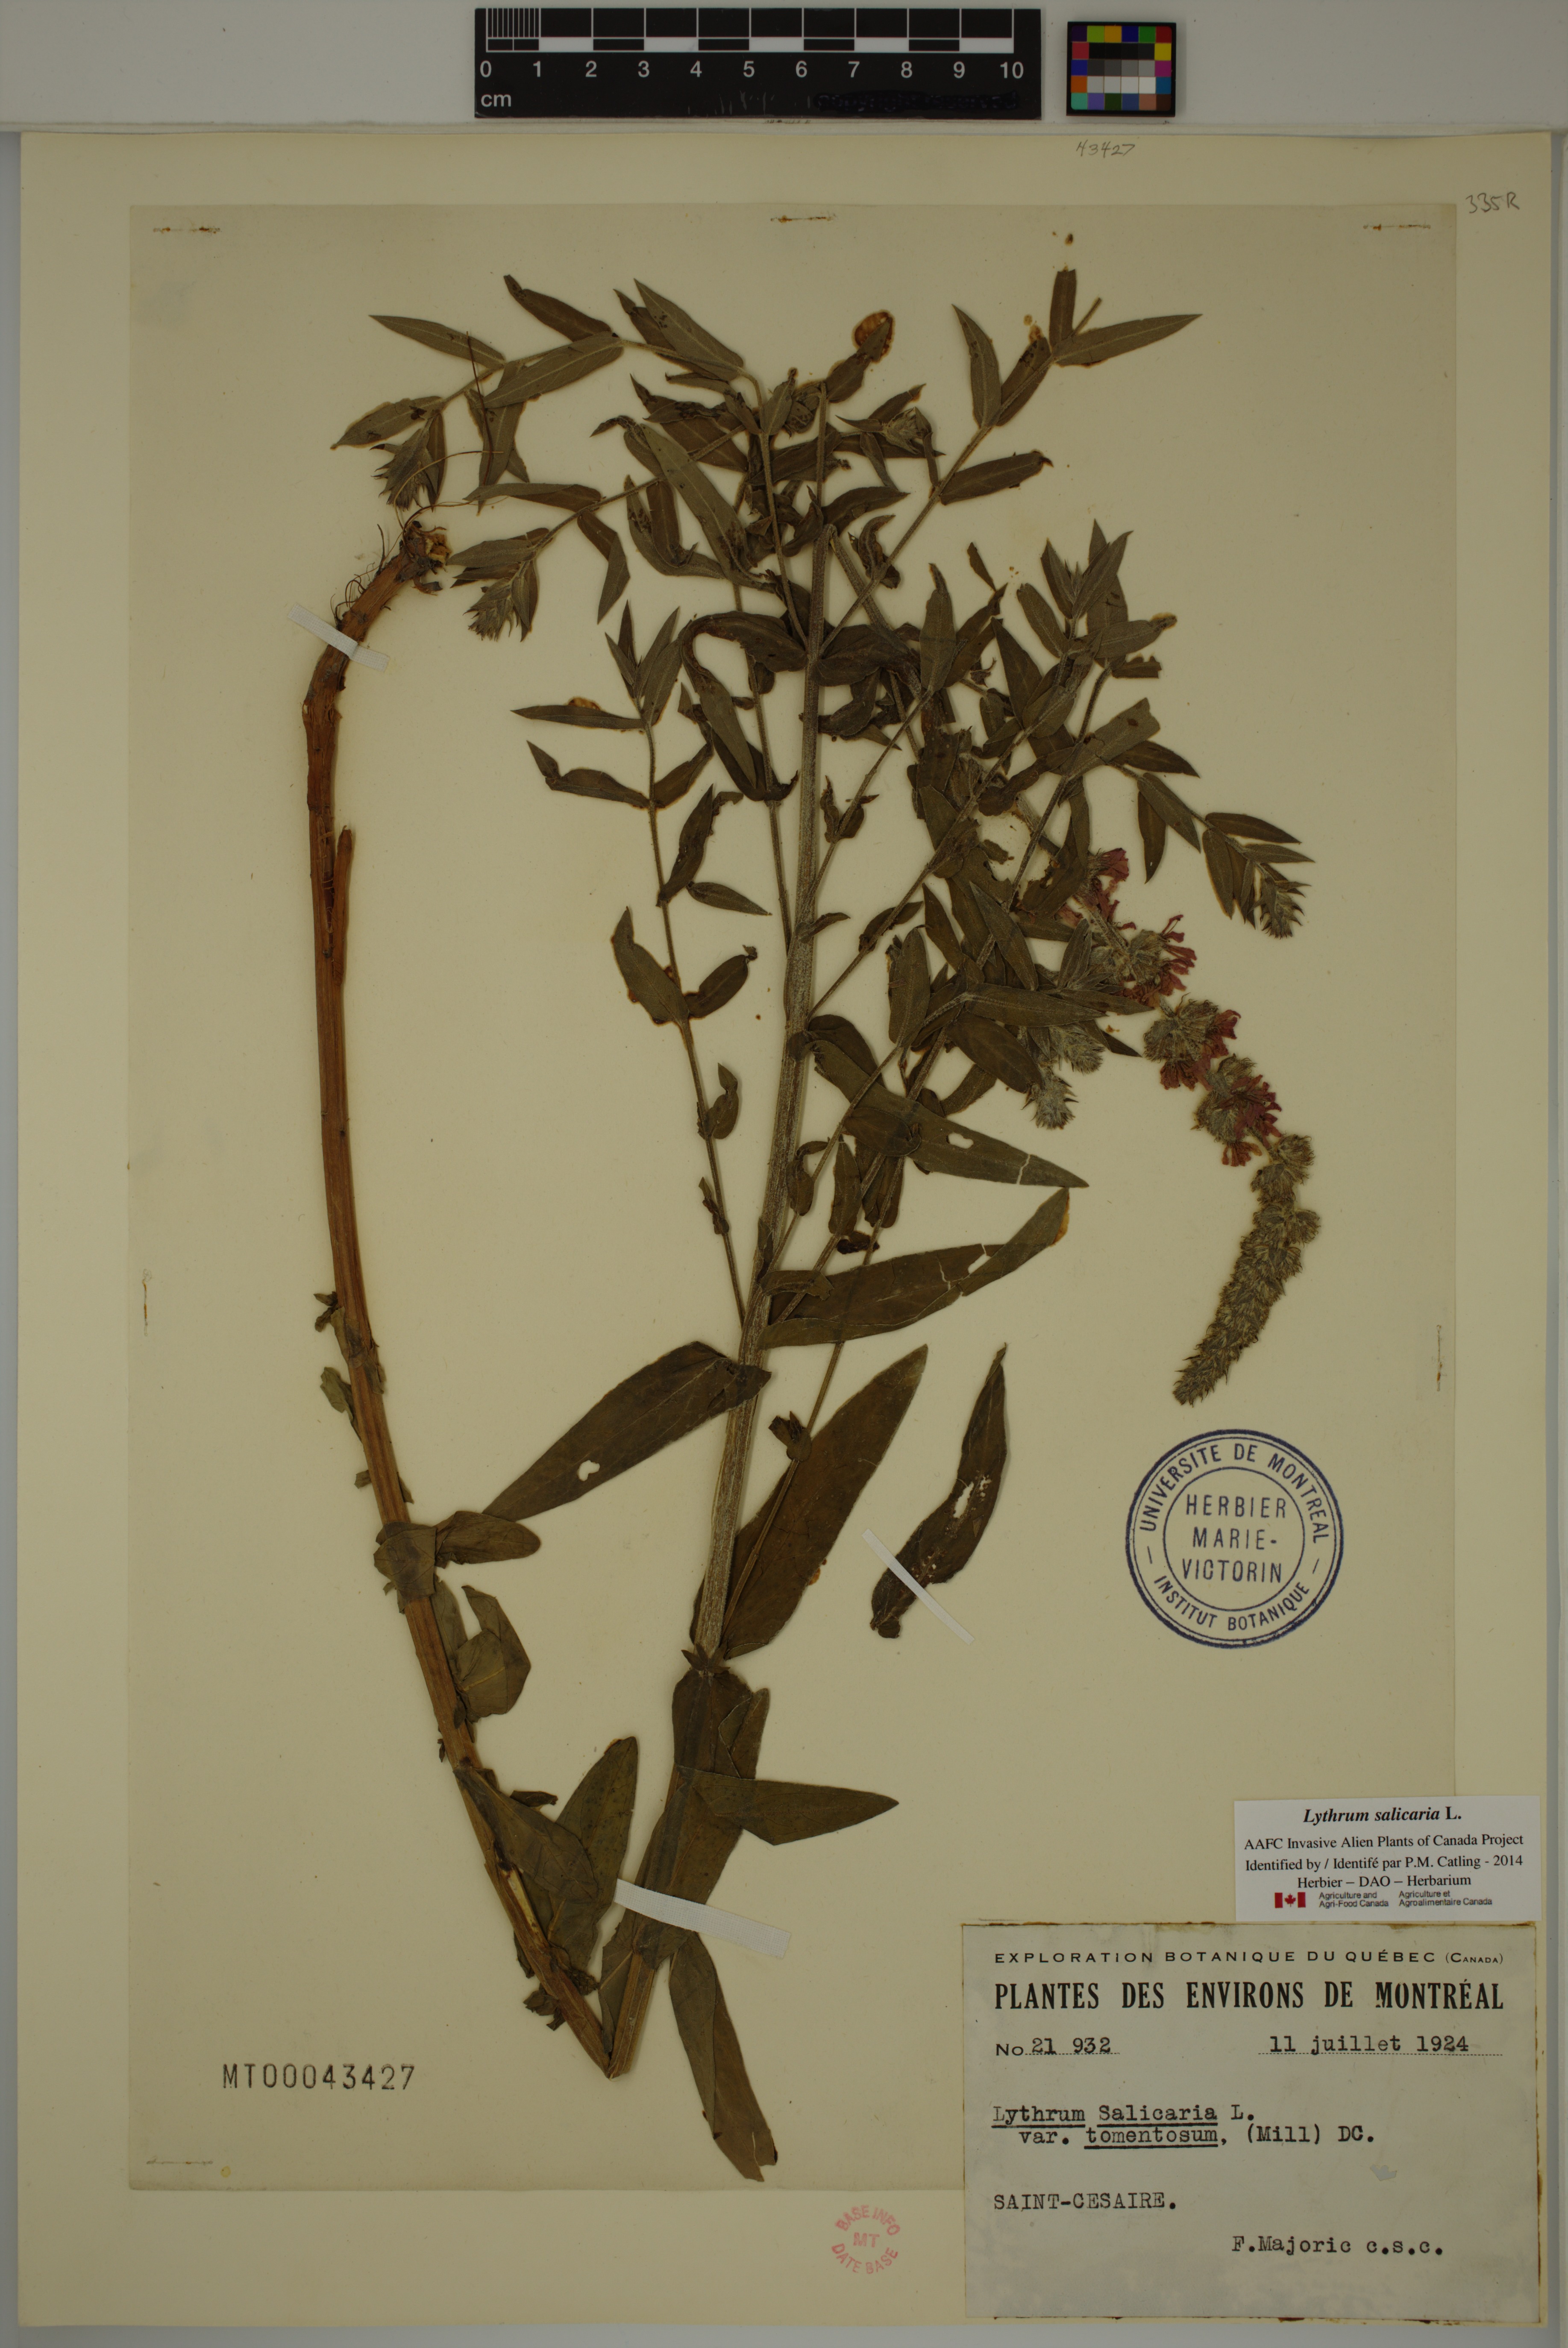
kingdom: Plantae
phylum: Tracheophyta
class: Magnoliopsida
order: Myrtales
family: Lythraceae
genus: Lythrum
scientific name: Lythrum salicaria
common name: Purple loosestrife
